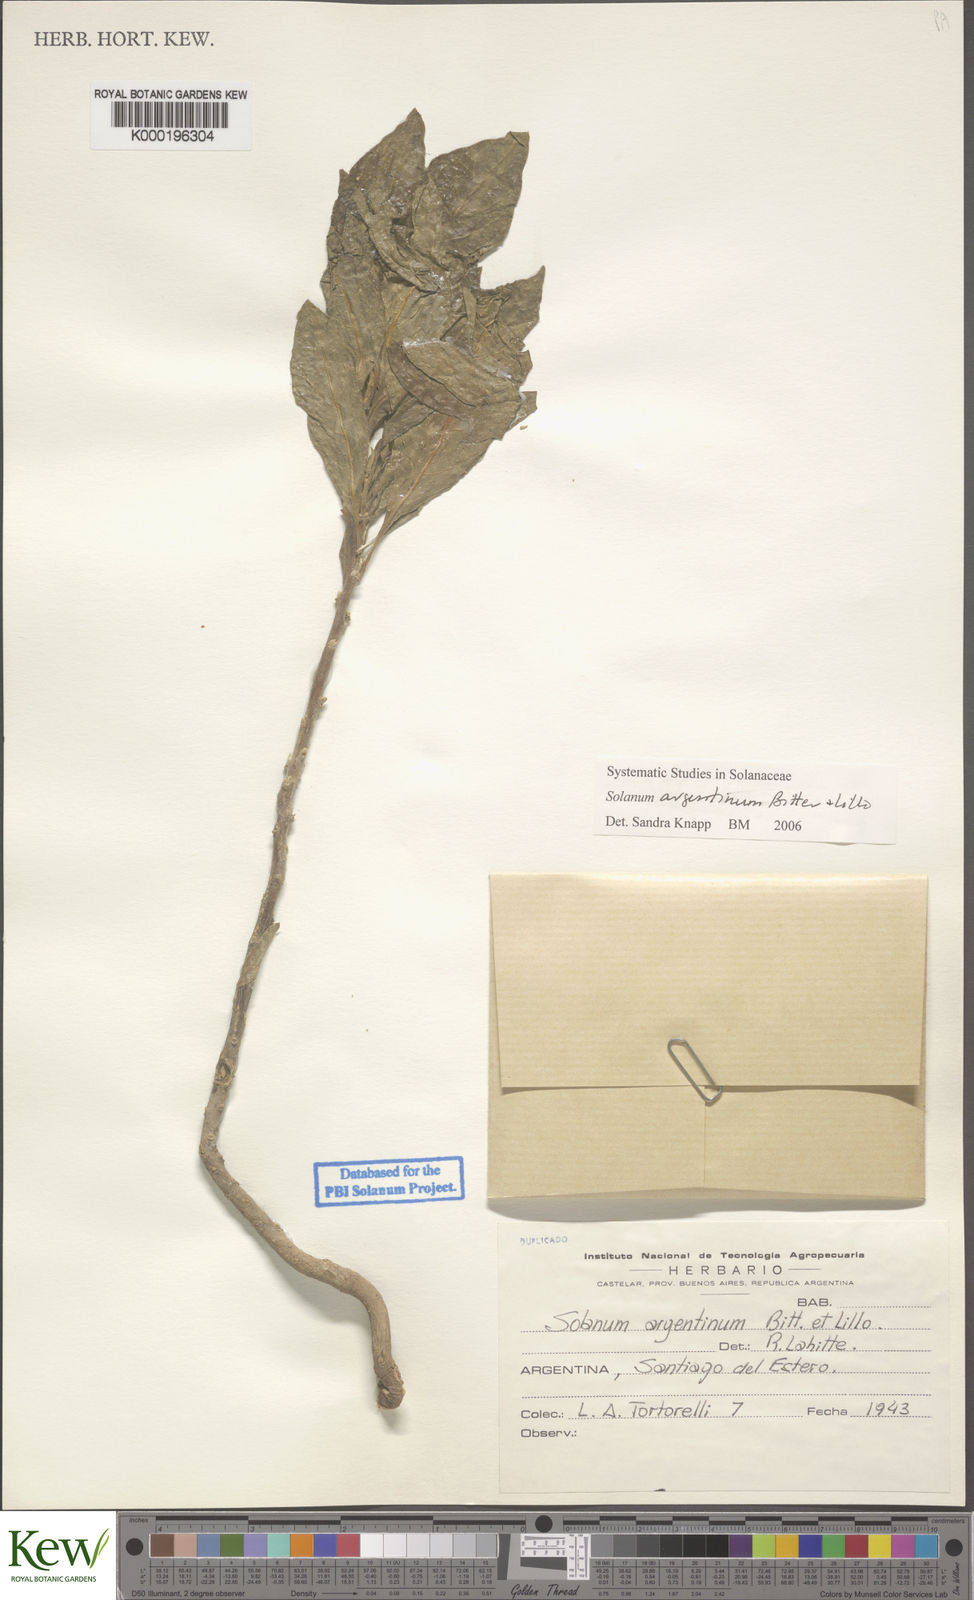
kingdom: Plantae
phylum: Tracheophyta
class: Magnoliopsida
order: Solanales
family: Solanaceae
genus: Solanum
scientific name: Solanum argentinum
